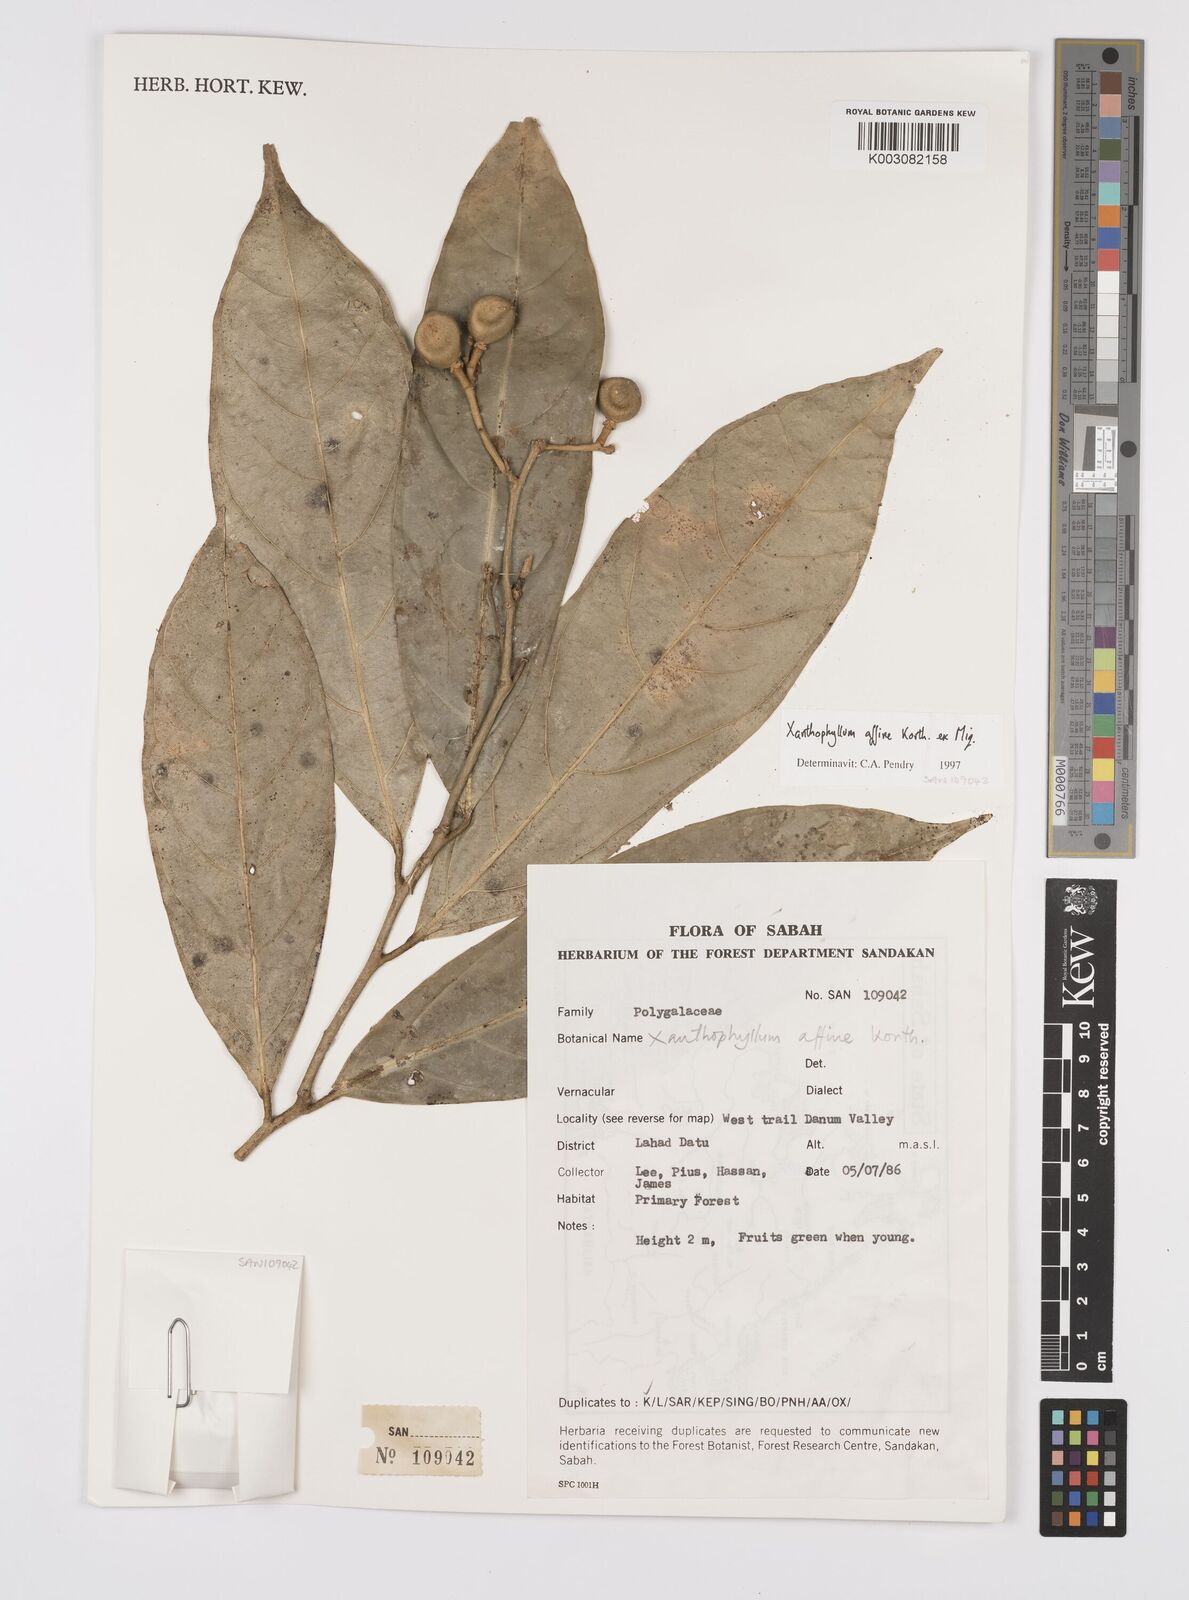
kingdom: Plantae
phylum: Tracheophyta
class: Magnoliopsida
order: Fabales
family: Polygalaceae
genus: Xanthophyllum
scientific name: Xanthophyllum flavescens
